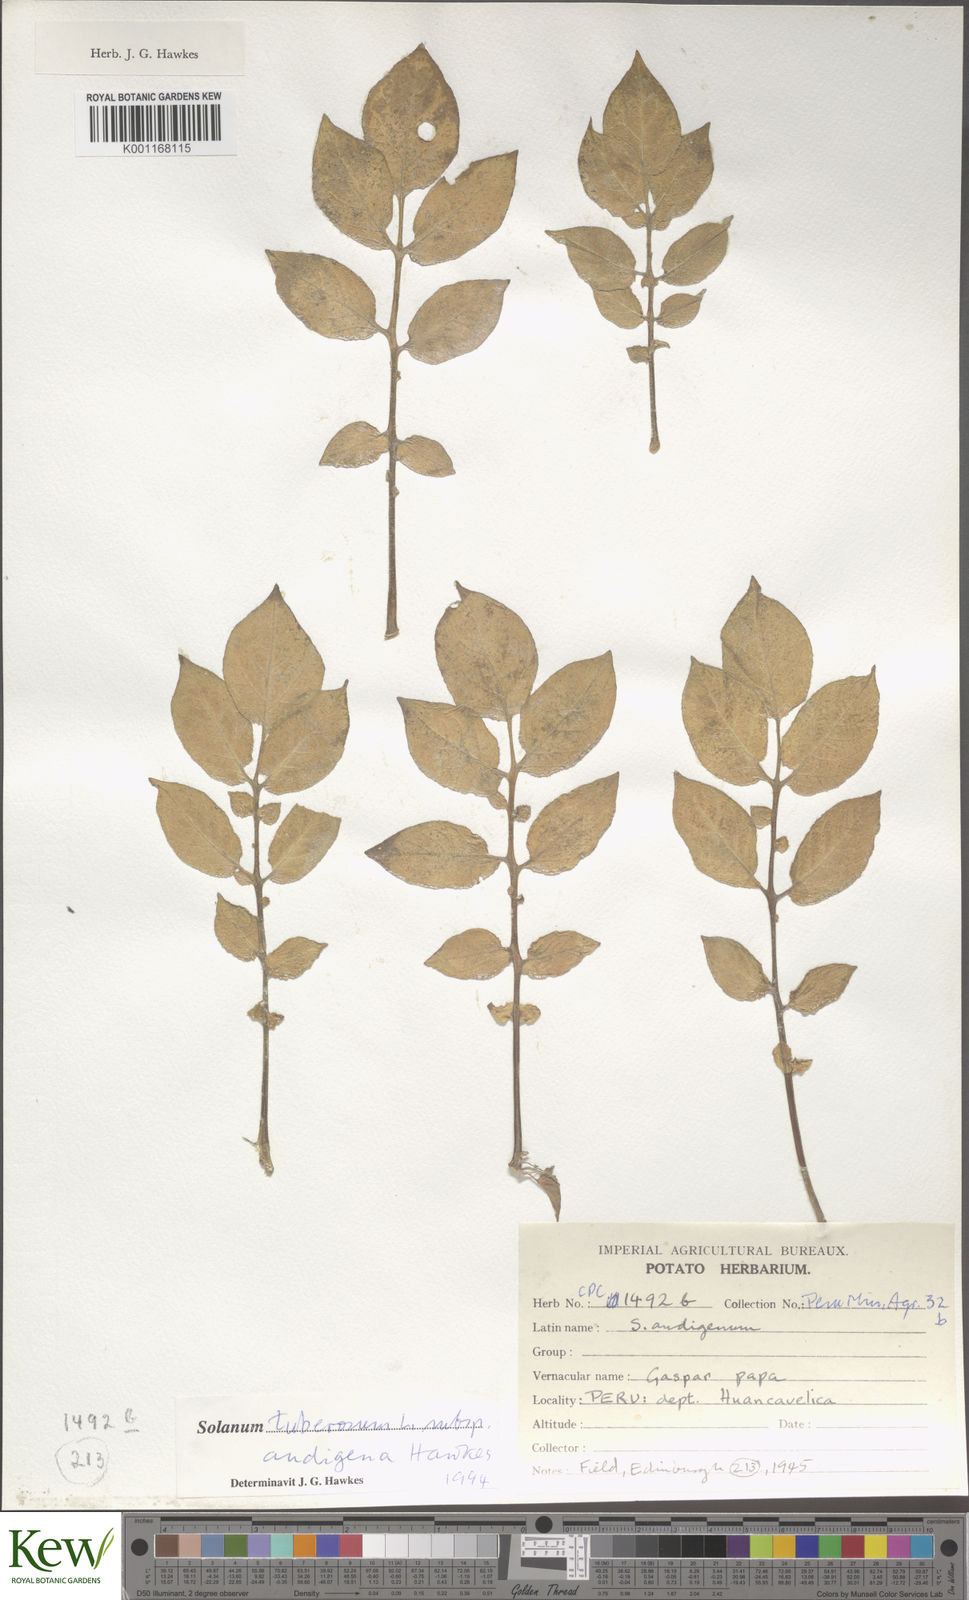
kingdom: Plantae
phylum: Tracheophyta
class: Magnoliopsida
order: Solanales
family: Solanaceae
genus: Solanum
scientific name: Solanum tuberosum
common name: Potato
